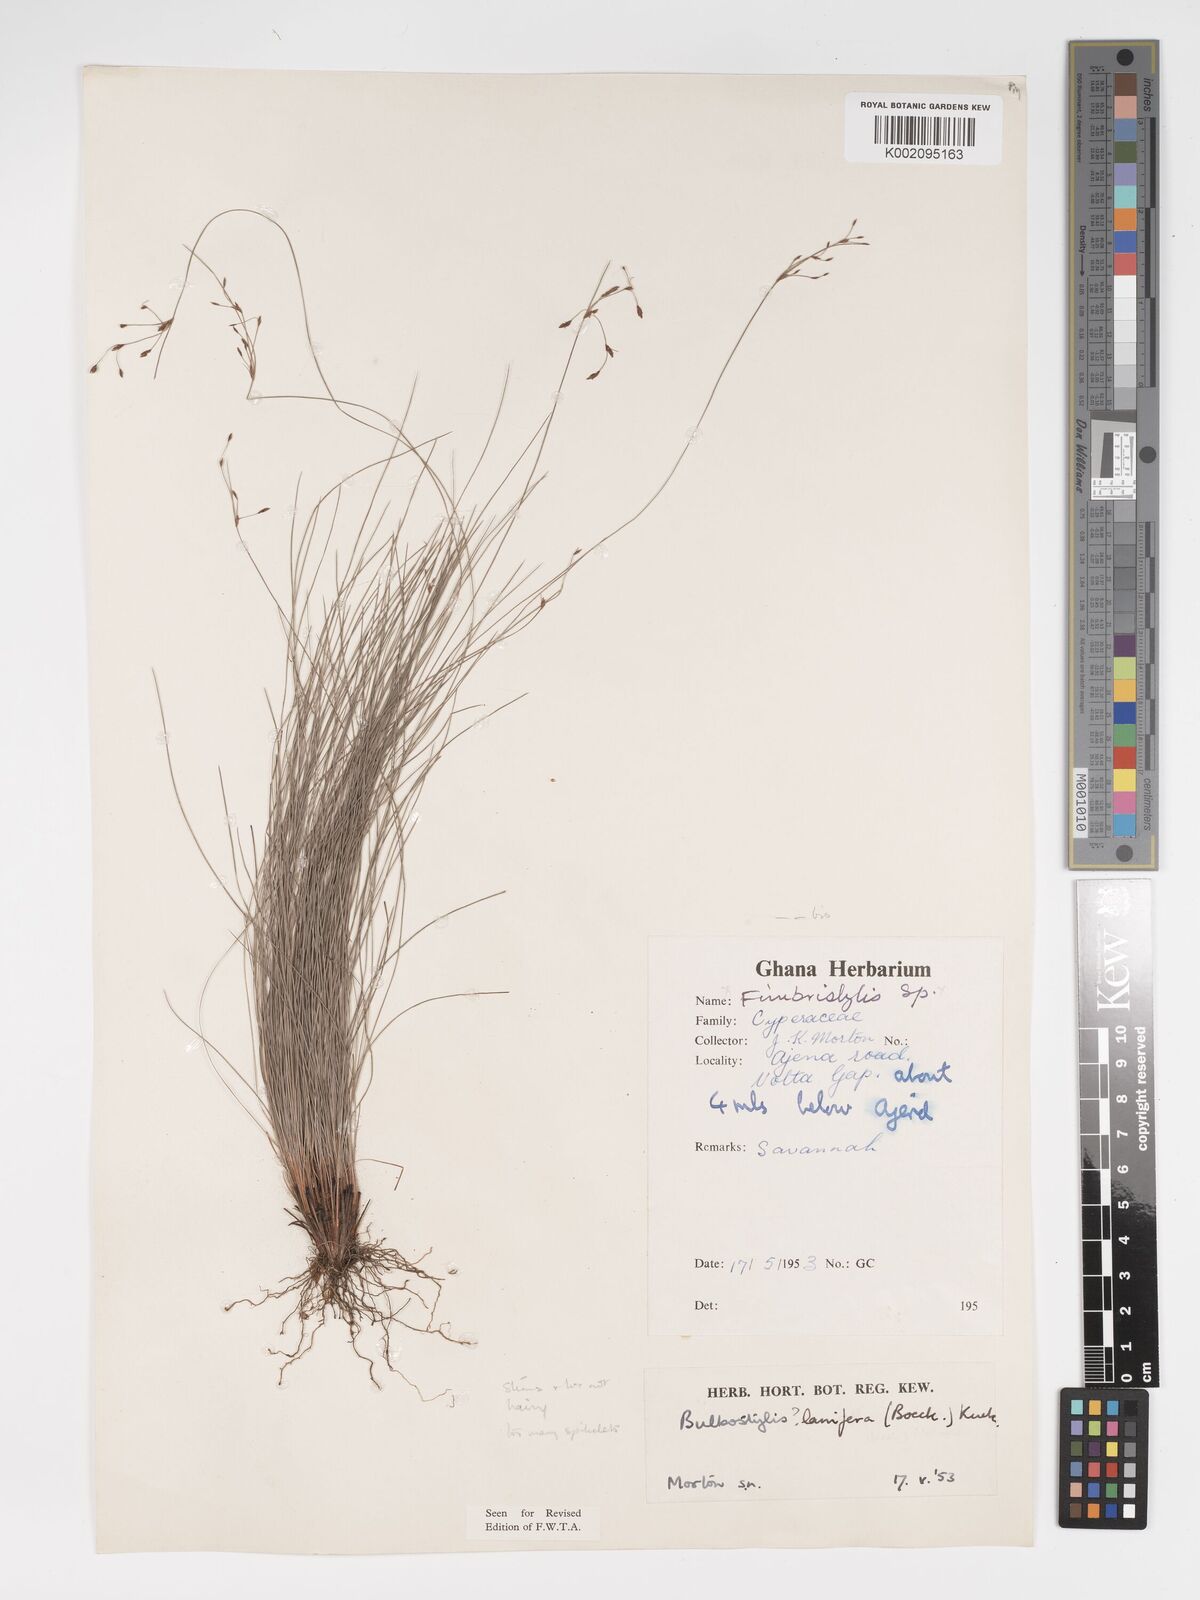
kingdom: Plantae
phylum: Tracheophyta
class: Liliopsida
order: Poales
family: Cyperaceae
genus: Bulbostylis
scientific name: Bulbostylis lanifera
